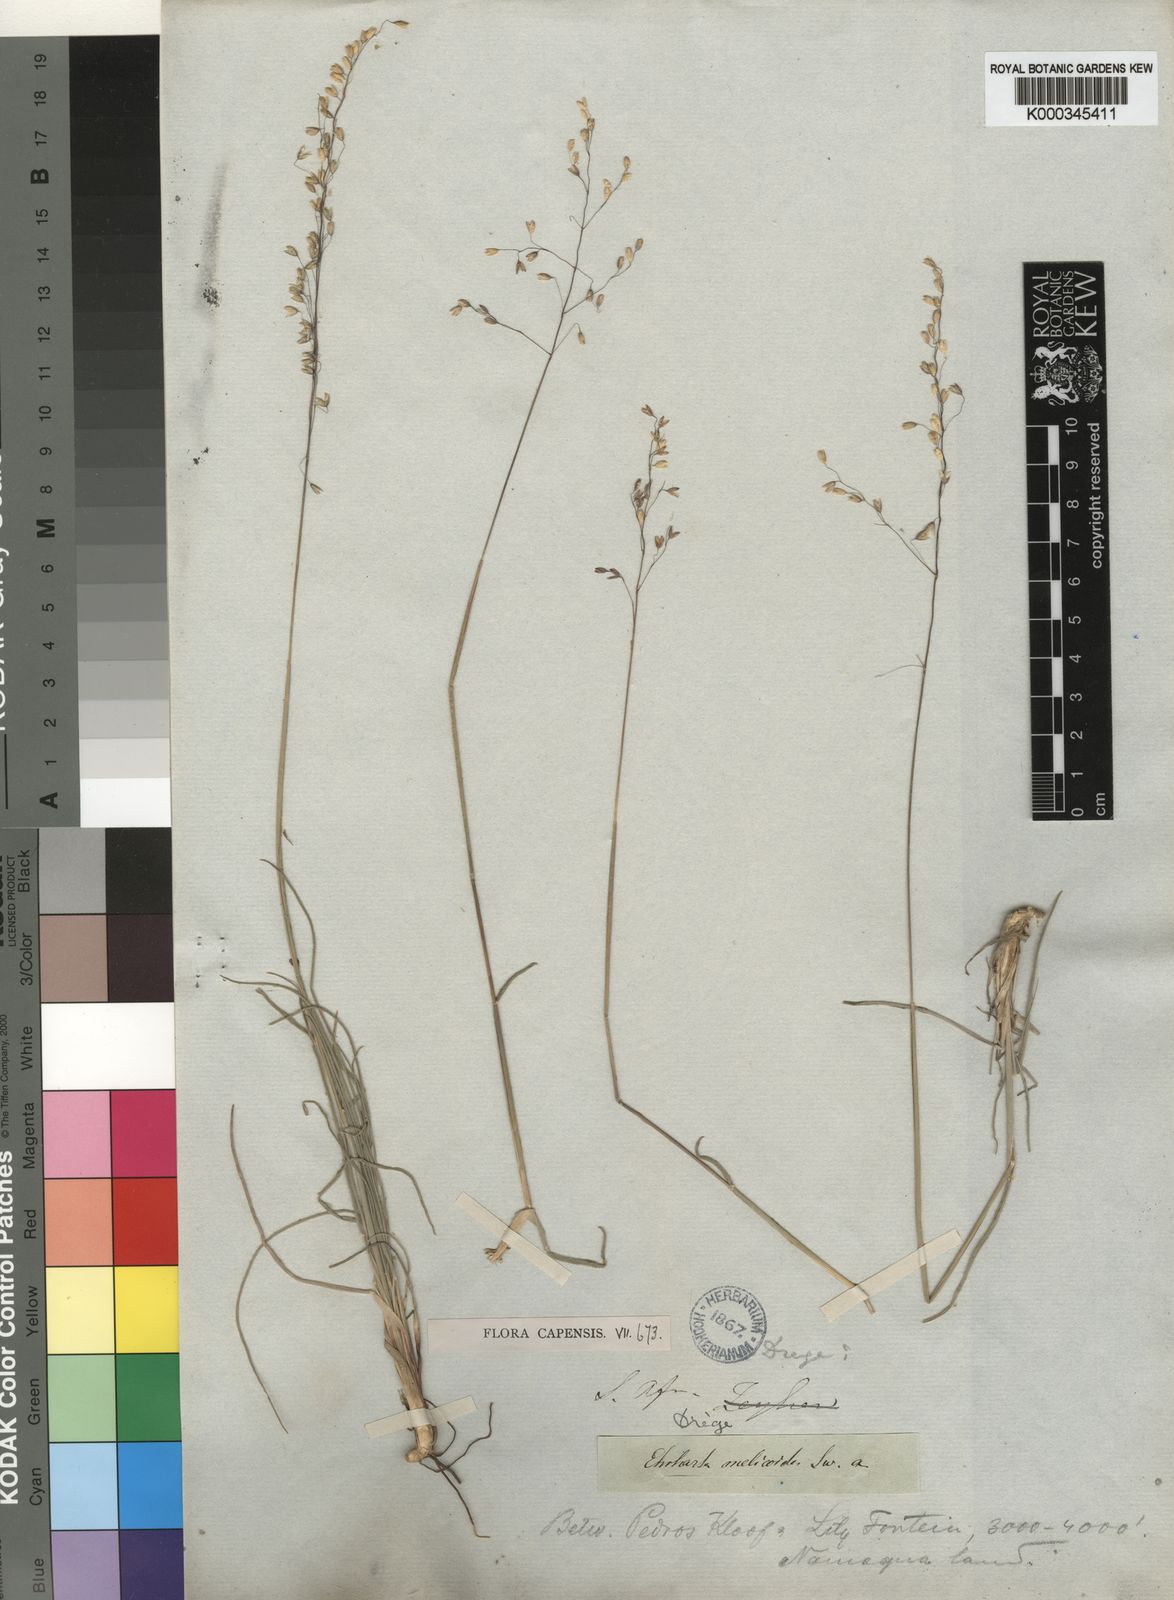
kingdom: Plantae
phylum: Tracheophyta
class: Liliopsida
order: Poales
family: Poaceae
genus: Ehrharta
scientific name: Ehrharta melicoides
